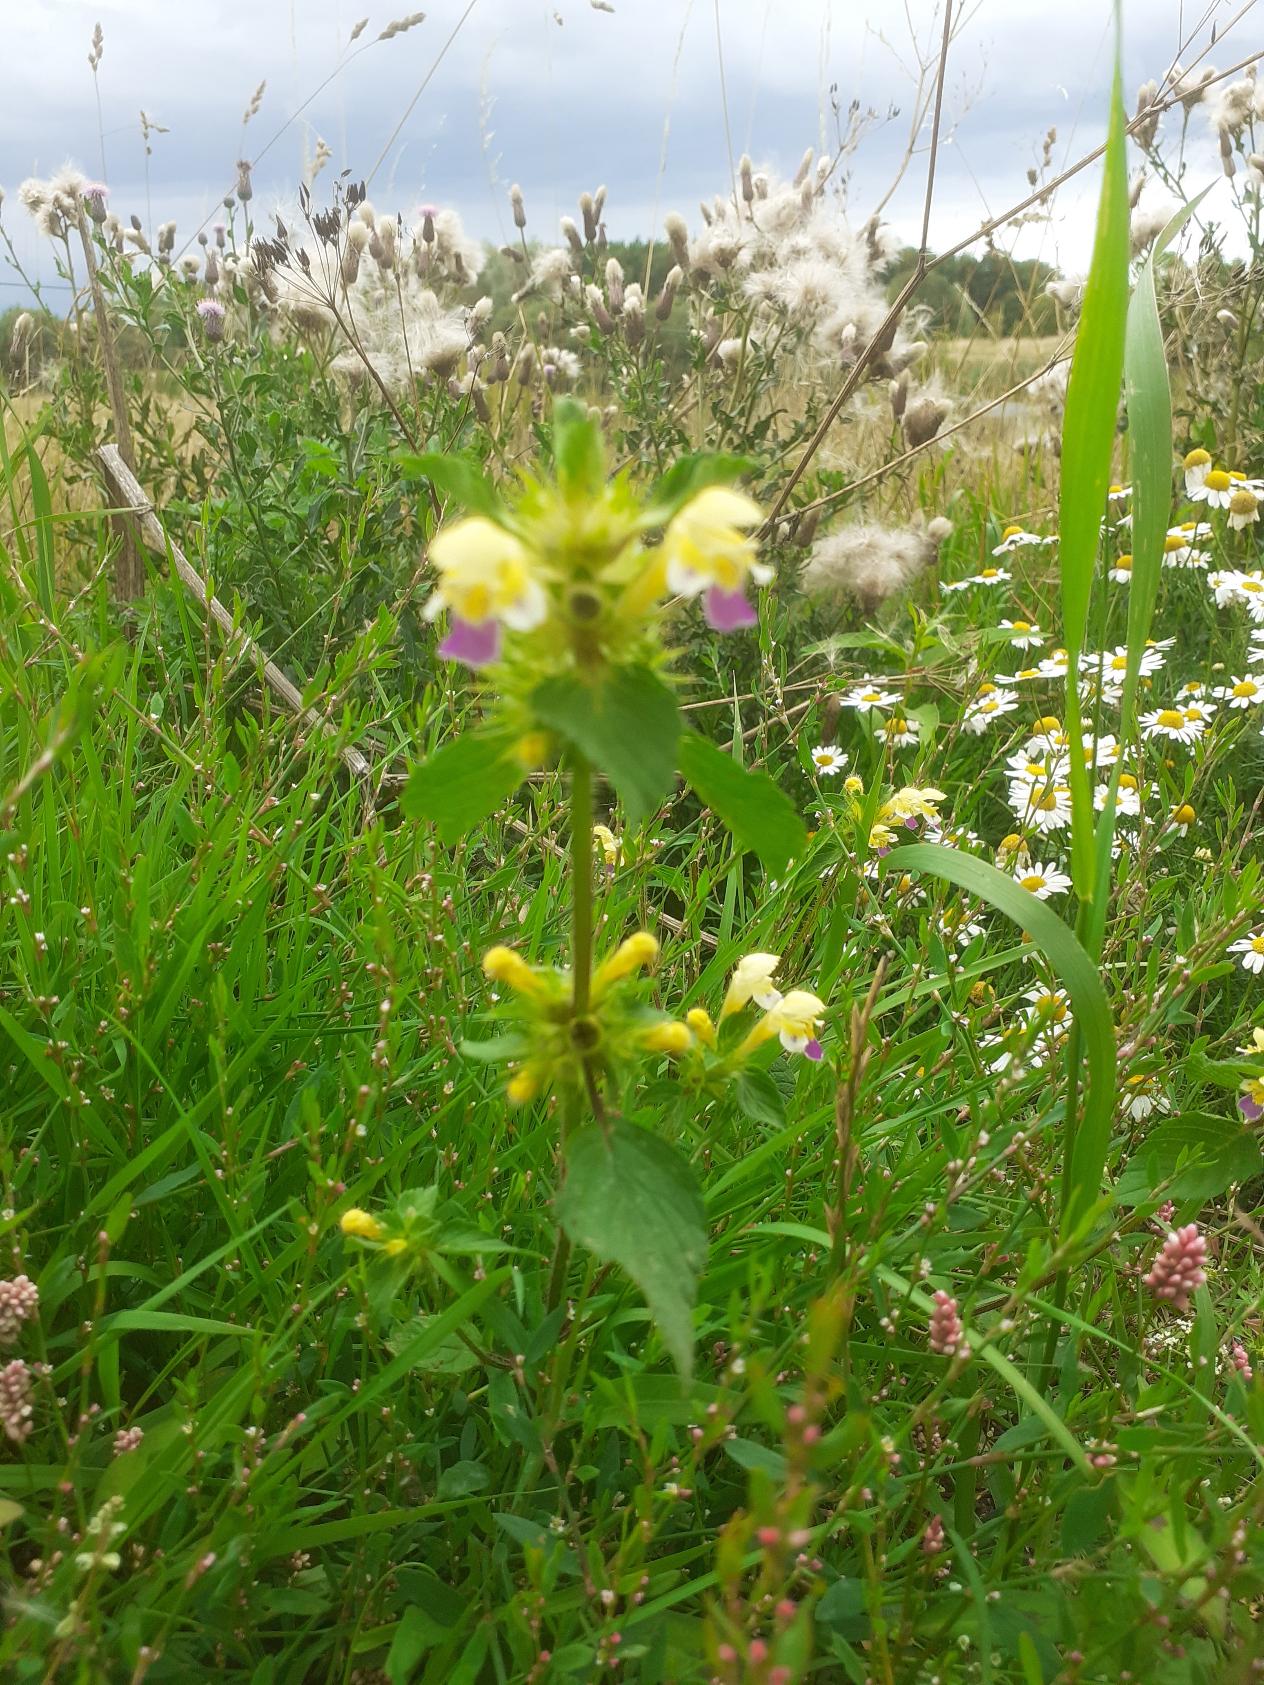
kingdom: Plantae
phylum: Tracheophyta
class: Magnoliopsida
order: Lamiales
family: Lamiaceae
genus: Galeopsis
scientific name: Galeopsis speciosa
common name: Hamp-hanekro
